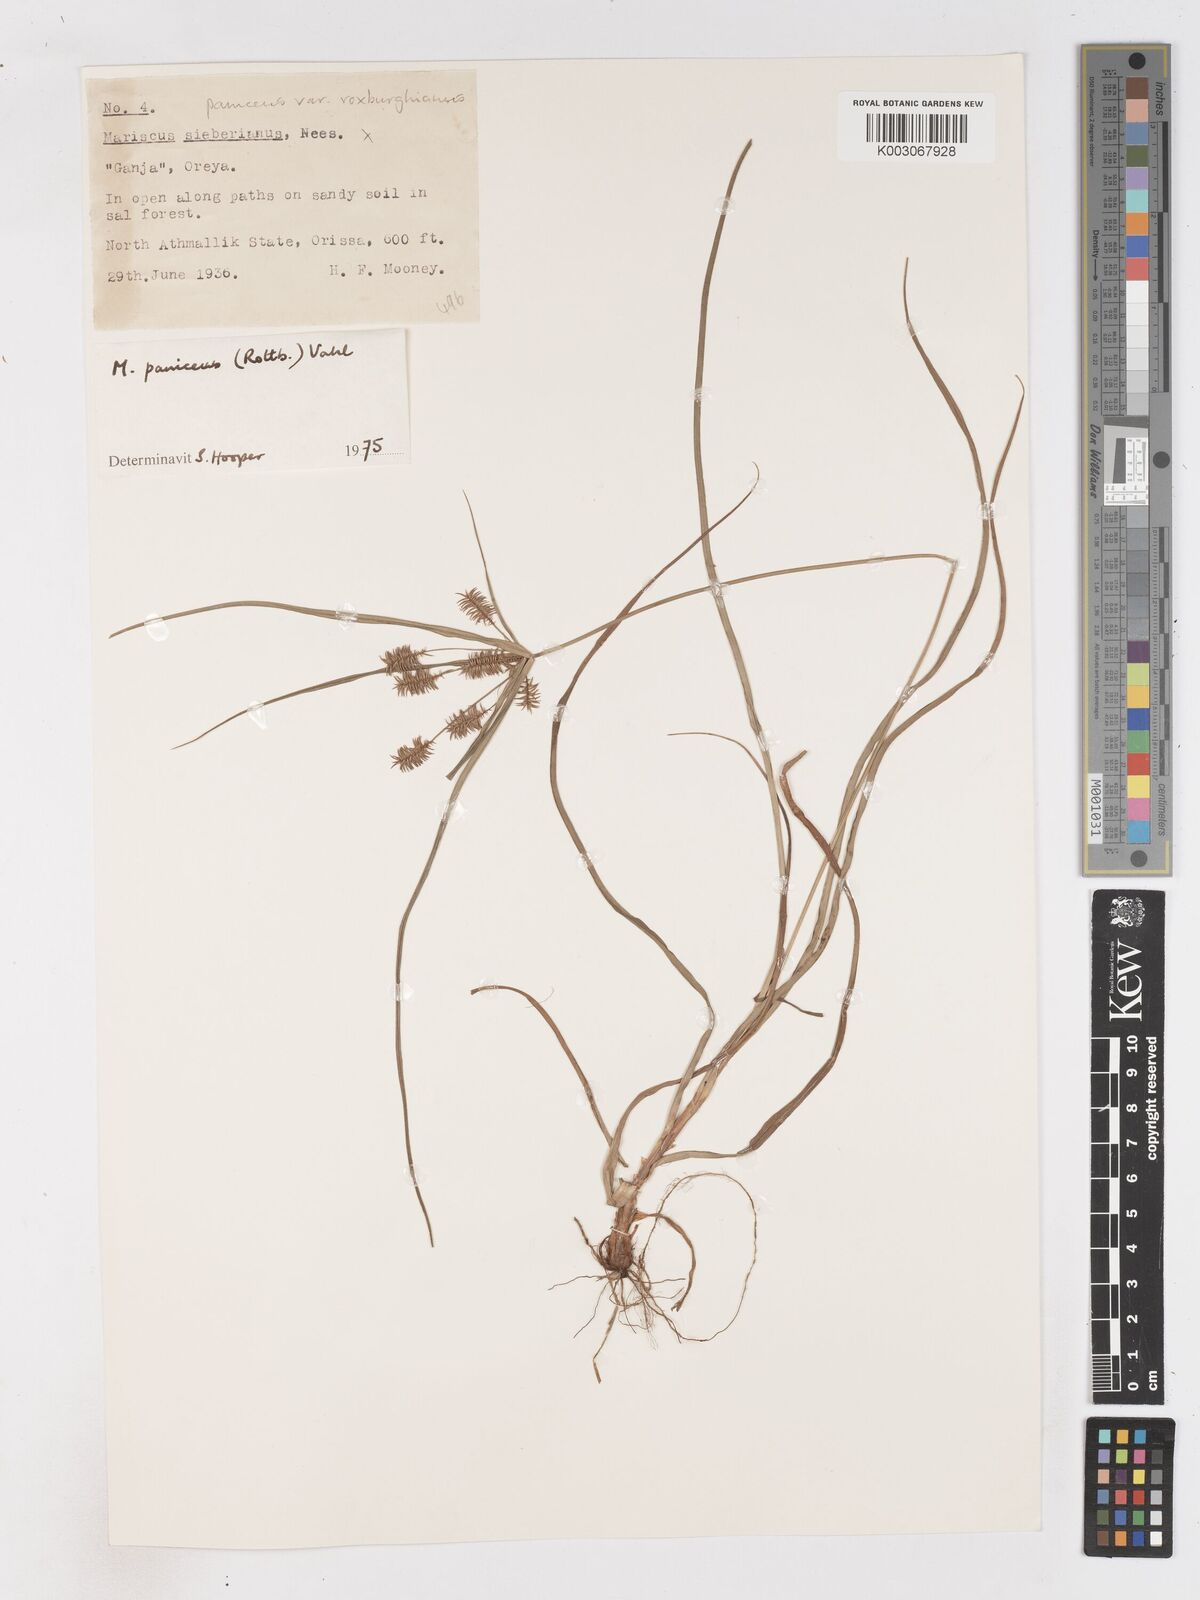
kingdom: Plantae
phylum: Tracheophyta
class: Liliopsida
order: Poales
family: Cyperaceae
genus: Cyperus
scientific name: Cyperus paniceus
